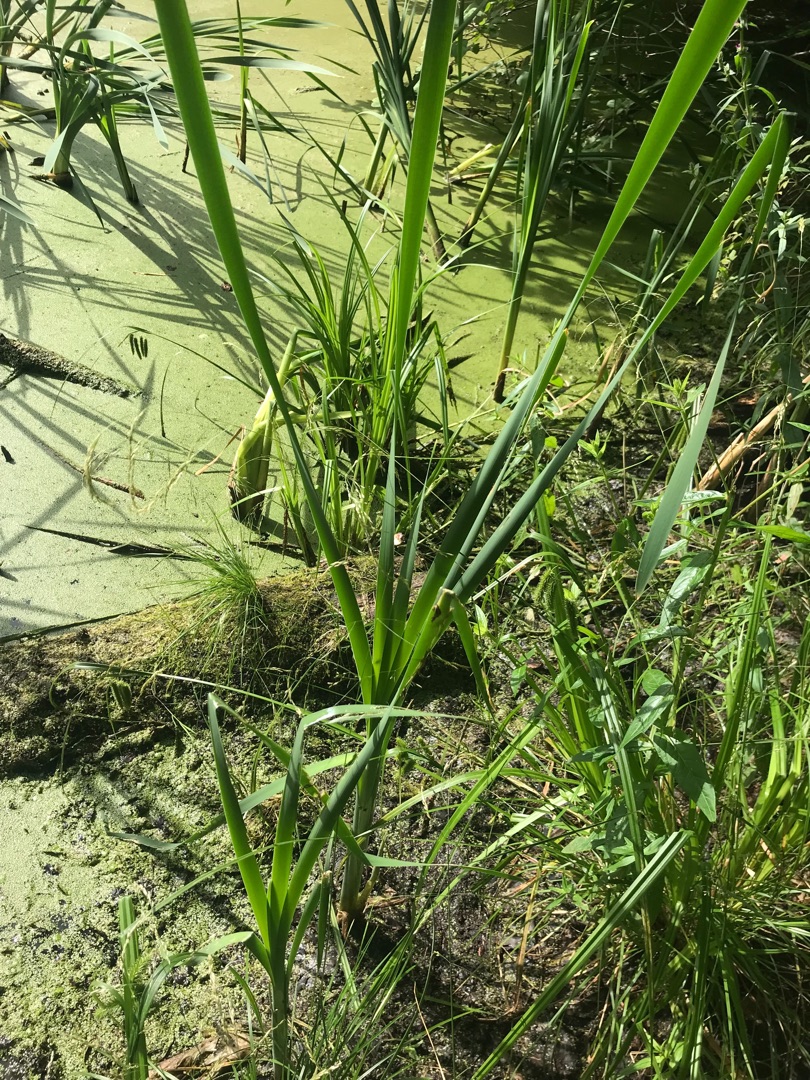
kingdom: Plantae
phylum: Tracheophyta
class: Liliopsida
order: Poales
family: Typhaceae
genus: Typha
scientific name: Typha latifolia
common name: Bredbladet dunhammer
